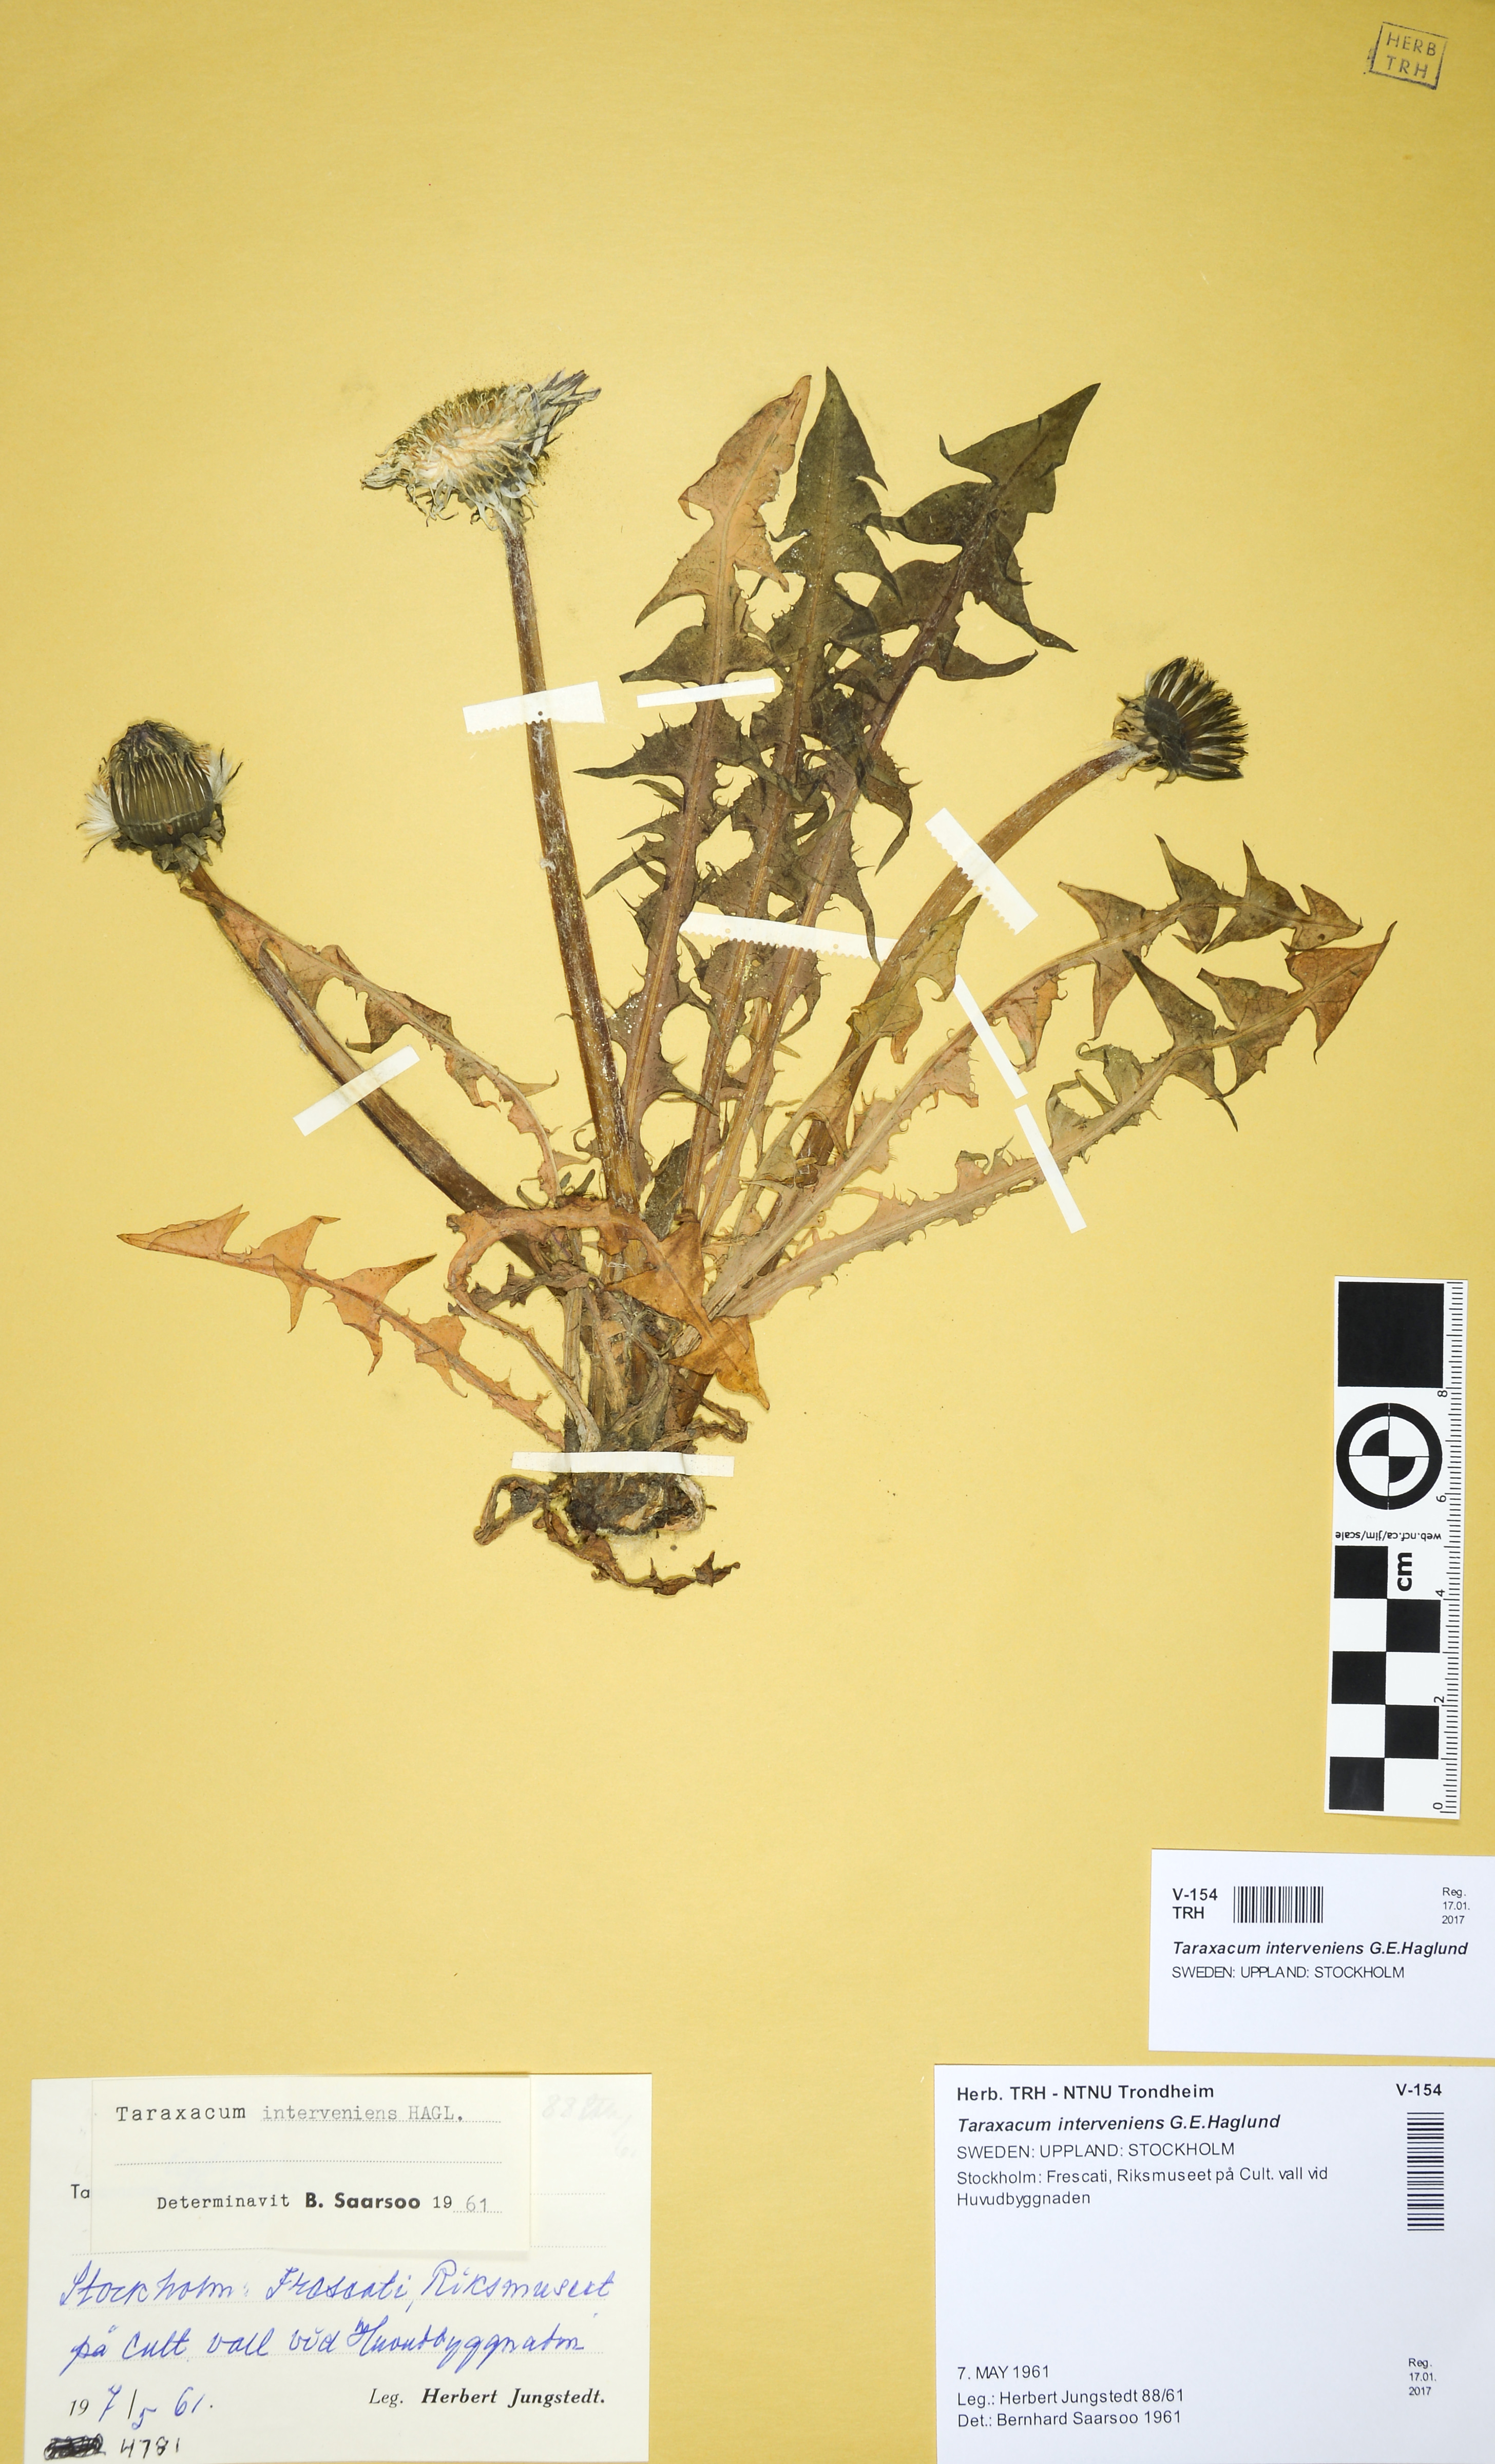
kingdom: Plantae
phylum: Tracheophyta
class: Magnoliopsida
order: Asterales
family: Asteraceae
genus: Taraxacum
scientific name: Taraxacum interveniens
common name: City dandelion
